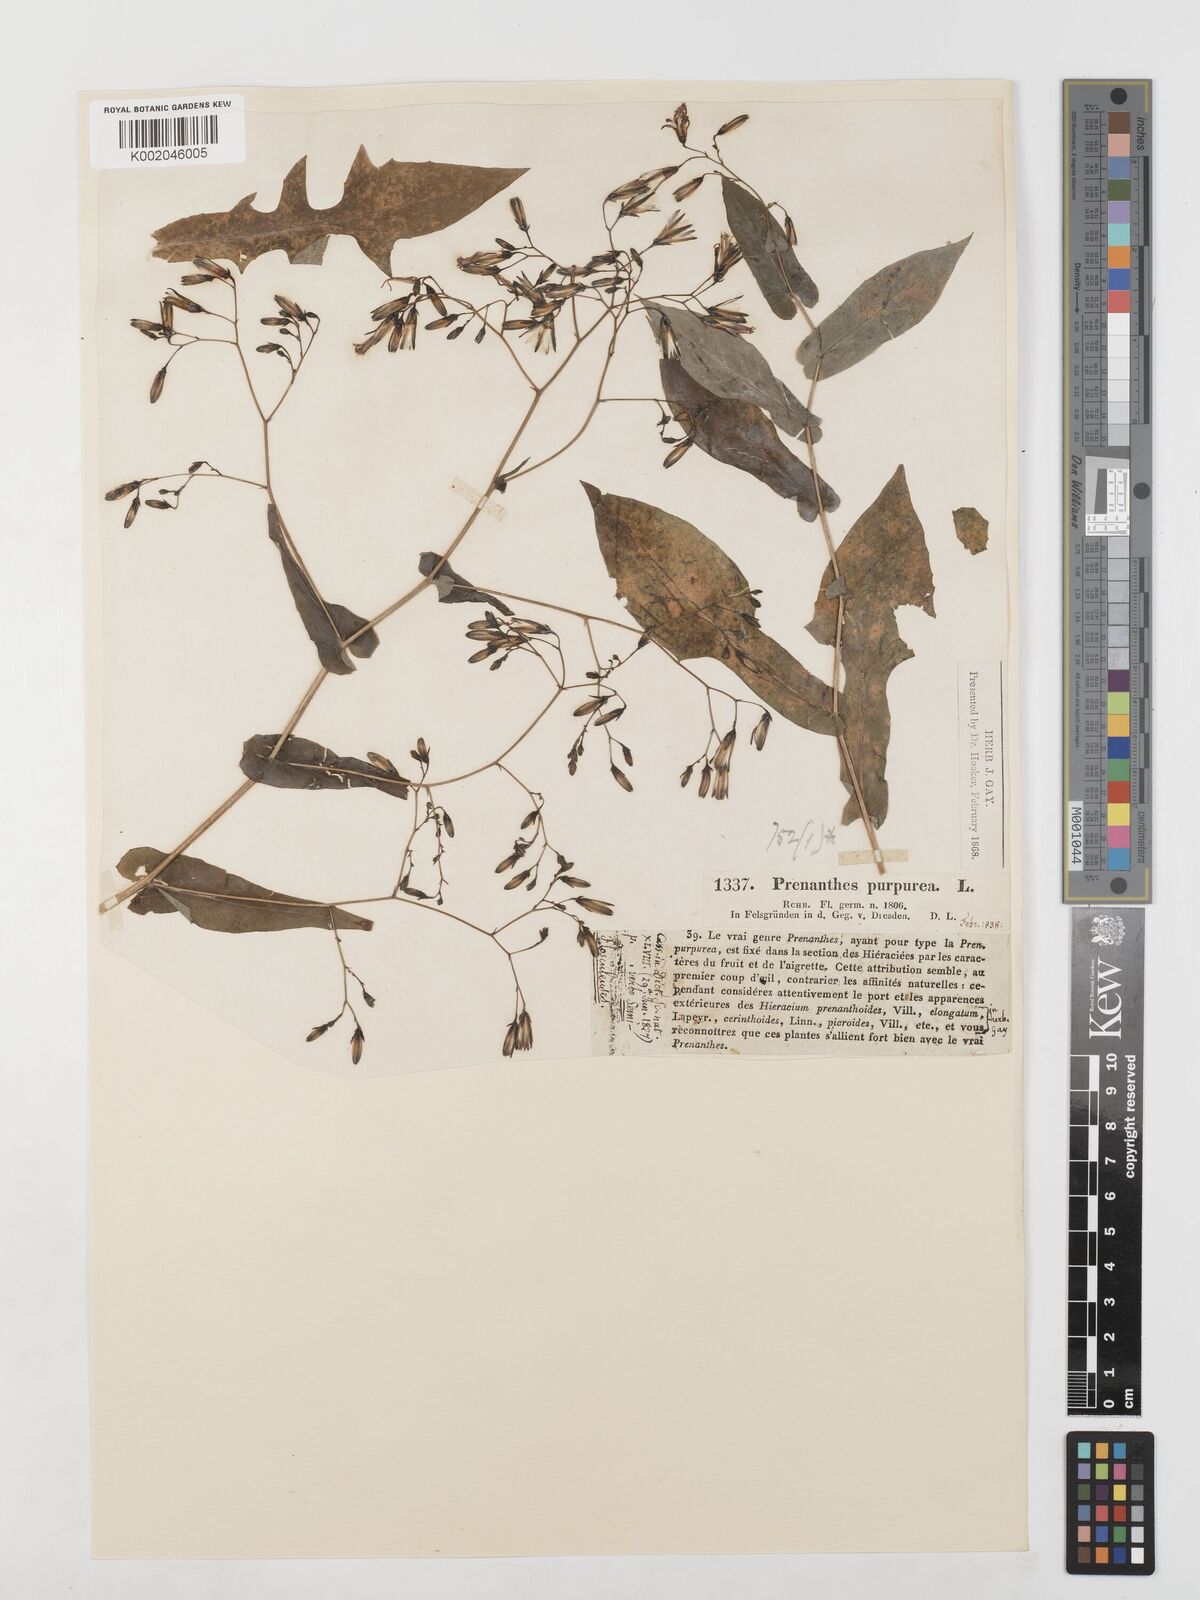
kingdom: Plantae
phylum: Tracheophyta
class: Magnoliopsida
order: Asterales
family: Asteraceae
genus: Prenanthes
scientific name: Prenanthes purpurea
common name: Purple lettuce
